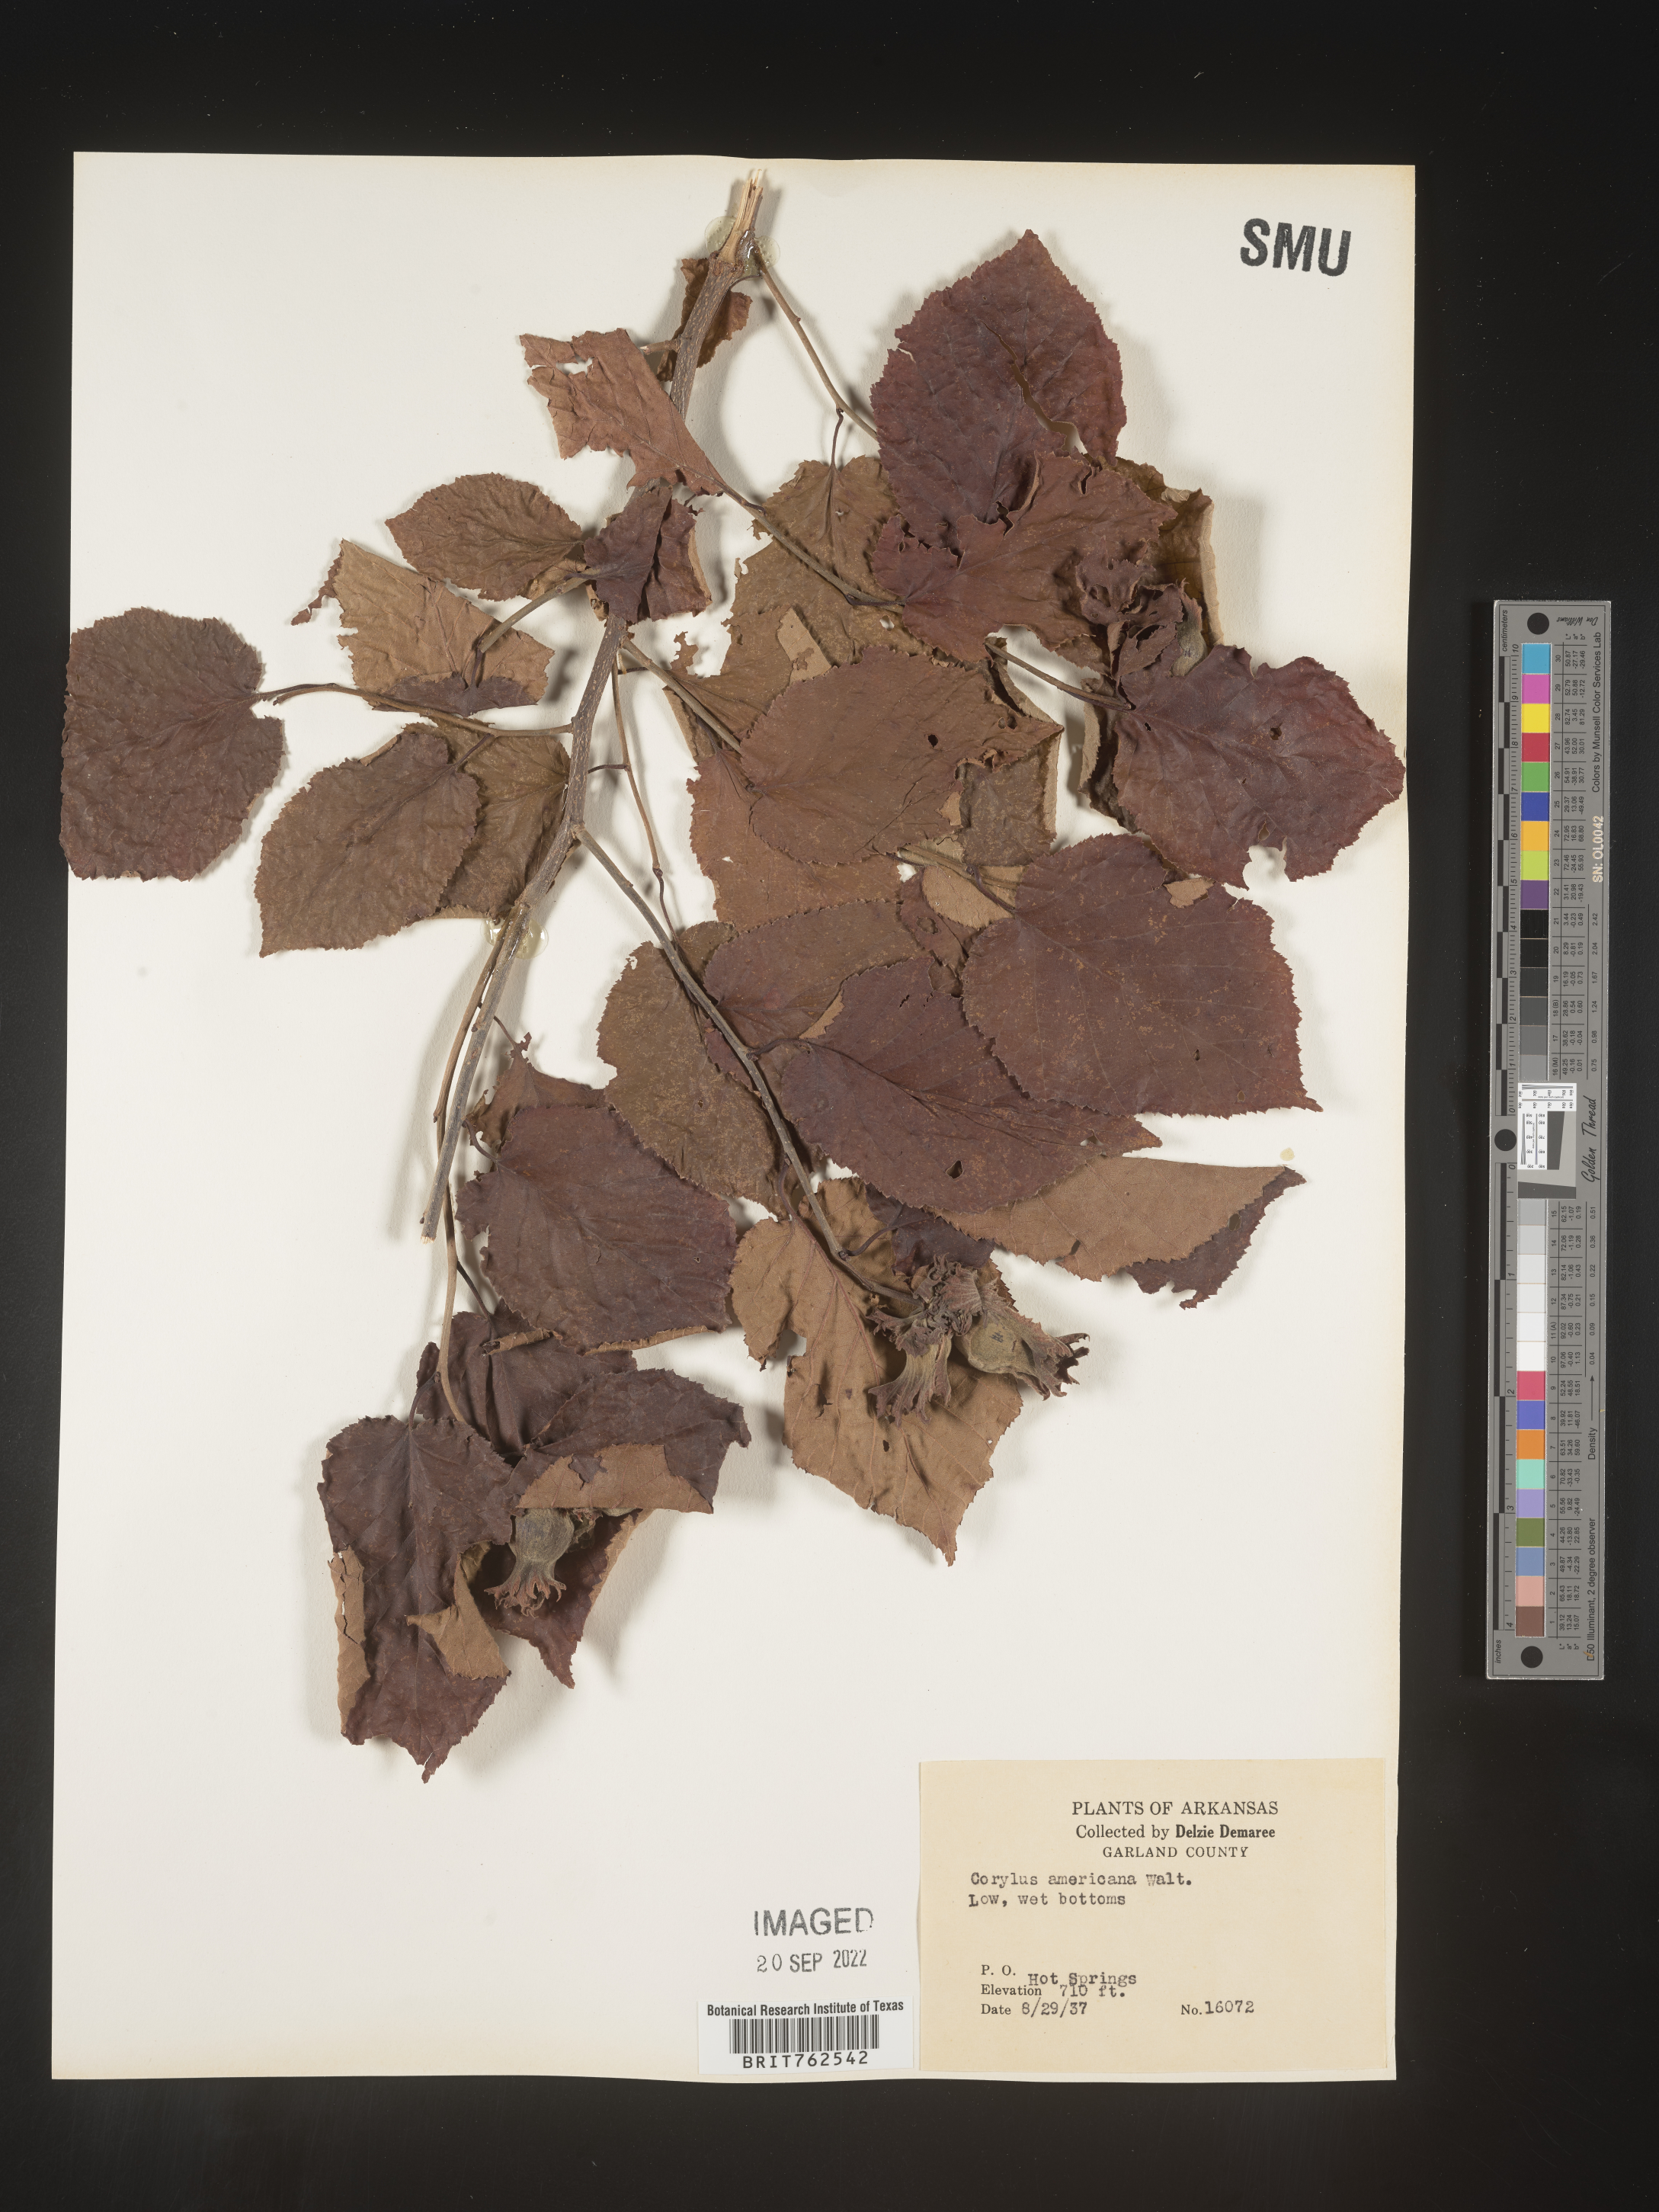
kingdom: Plantae
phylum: Tracheophyta
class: Magnoliopsida
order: Fagales
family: Betulaceae
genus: Corylus
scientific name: Corylus americana
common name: American hazel
